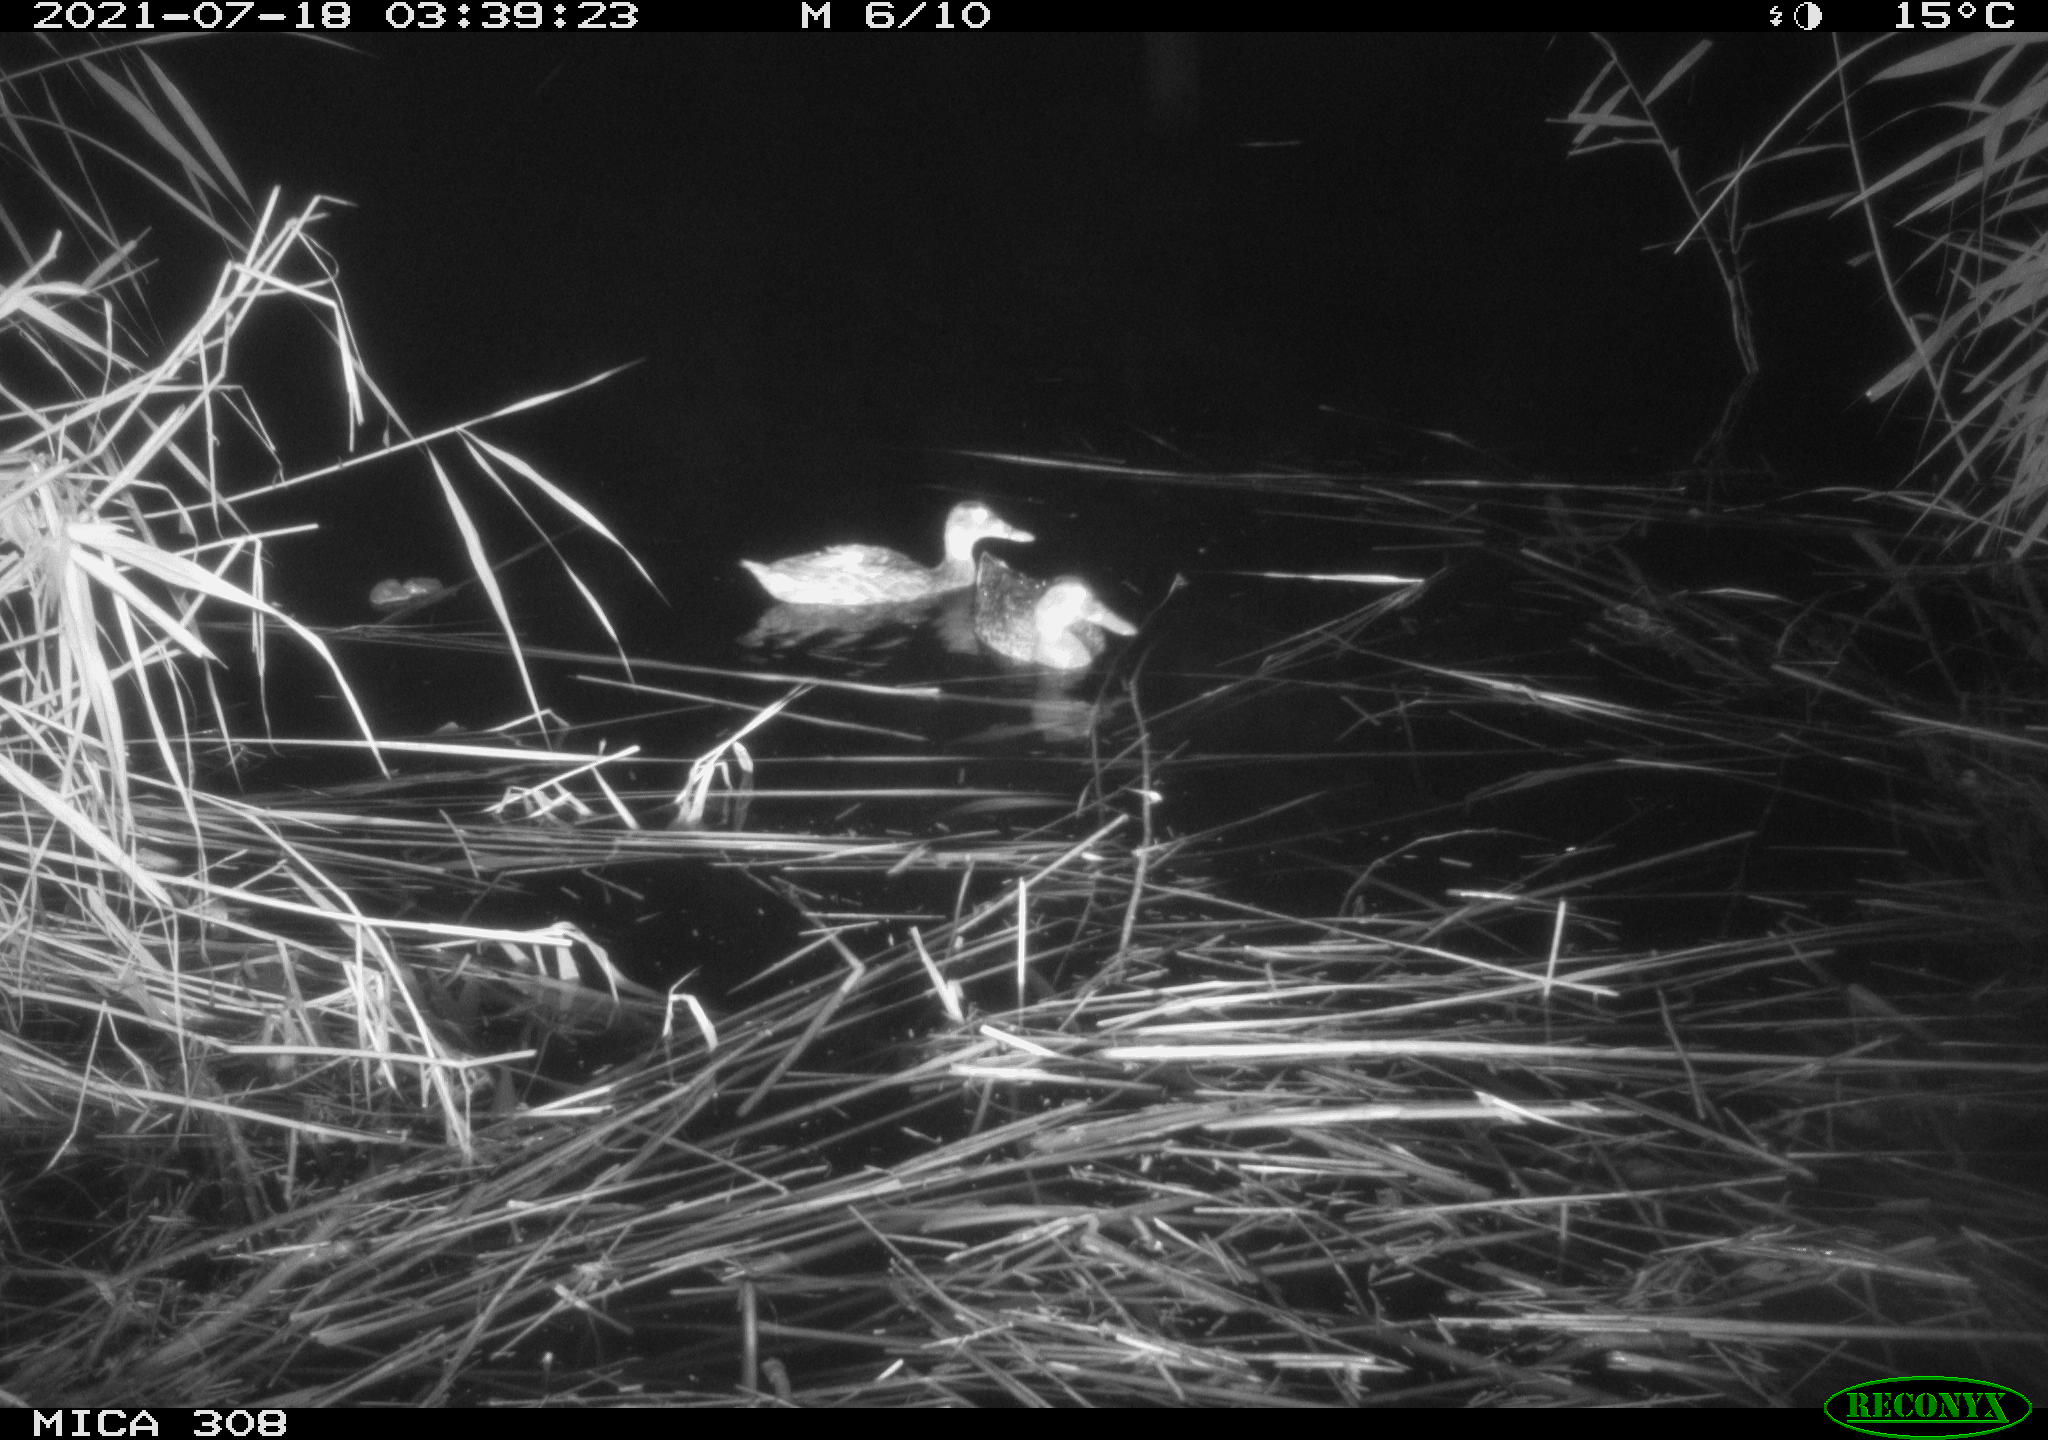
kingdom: Animalia
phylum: Chordata
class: Aves
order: Anseriformes
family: Anatidae
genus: Anas
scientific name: Anas platyrhynchos
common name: Mallard
